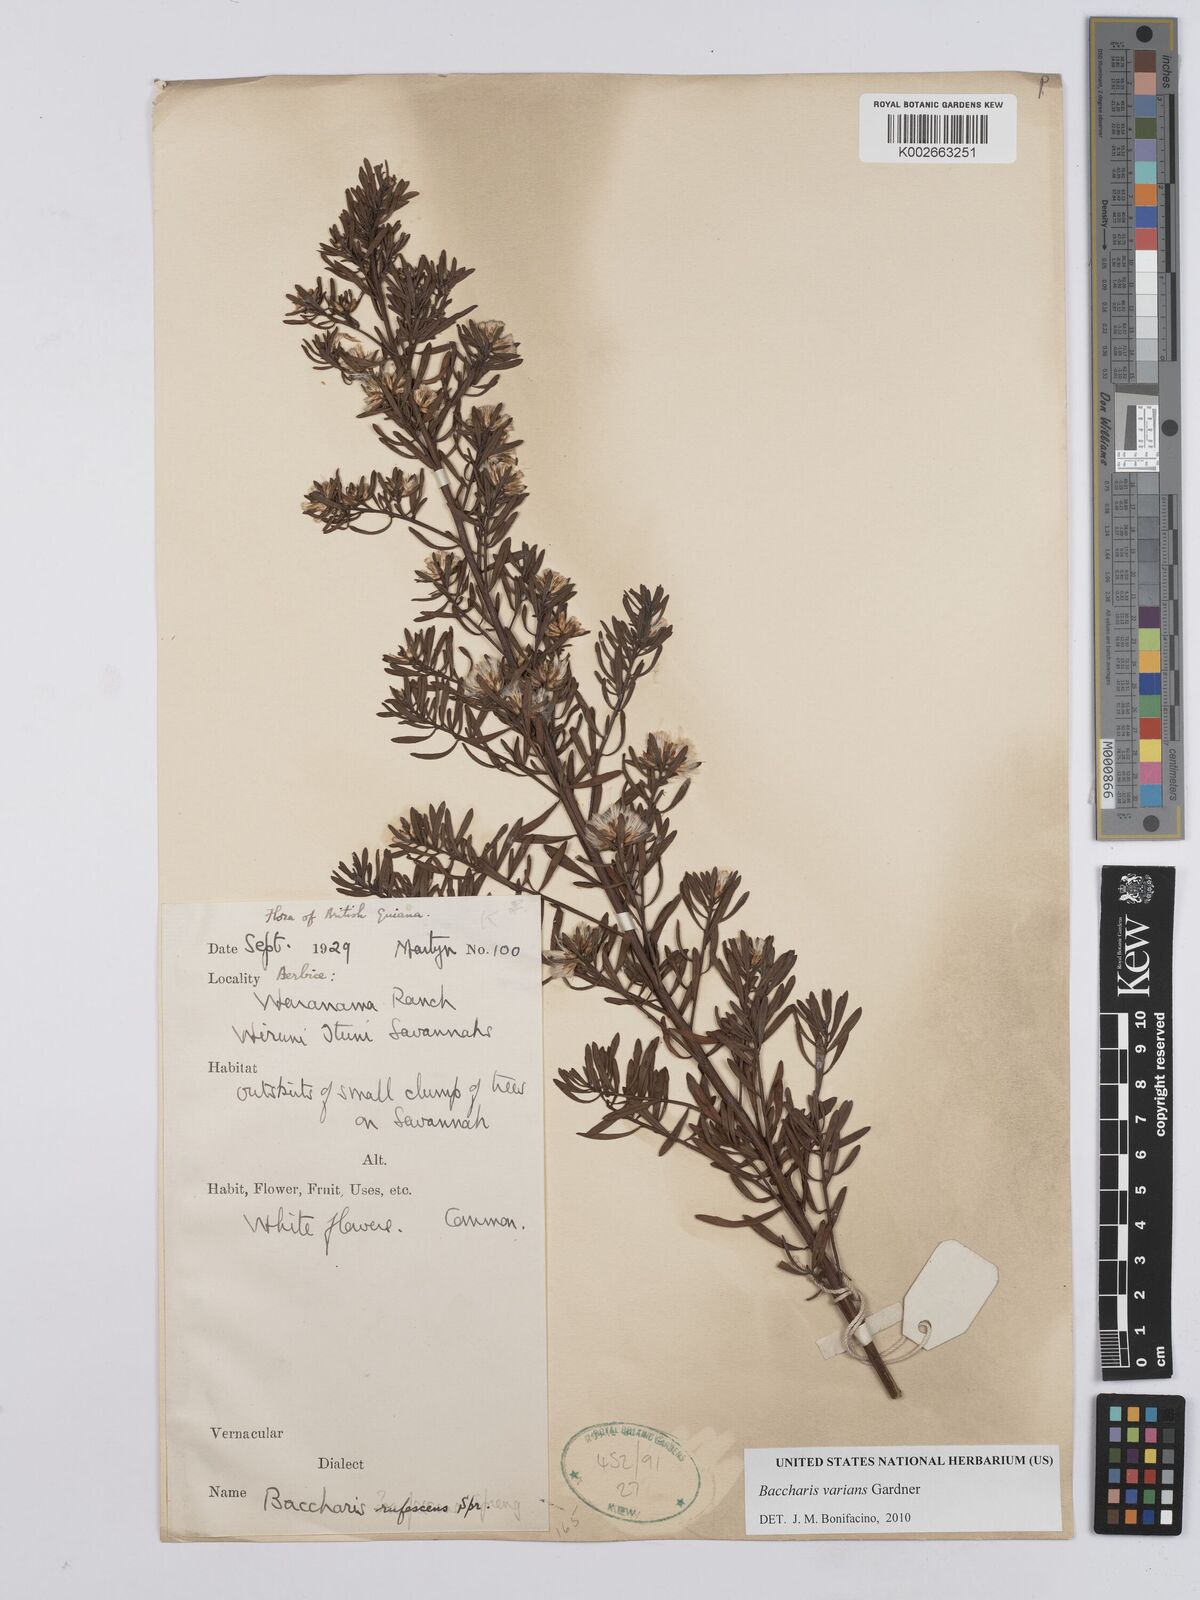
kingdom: Plantae
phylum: Tracheophyta
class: Magnoliopsida
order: Asterales
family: Asteraceae
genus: Baccharis
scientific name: Baccharis varians
